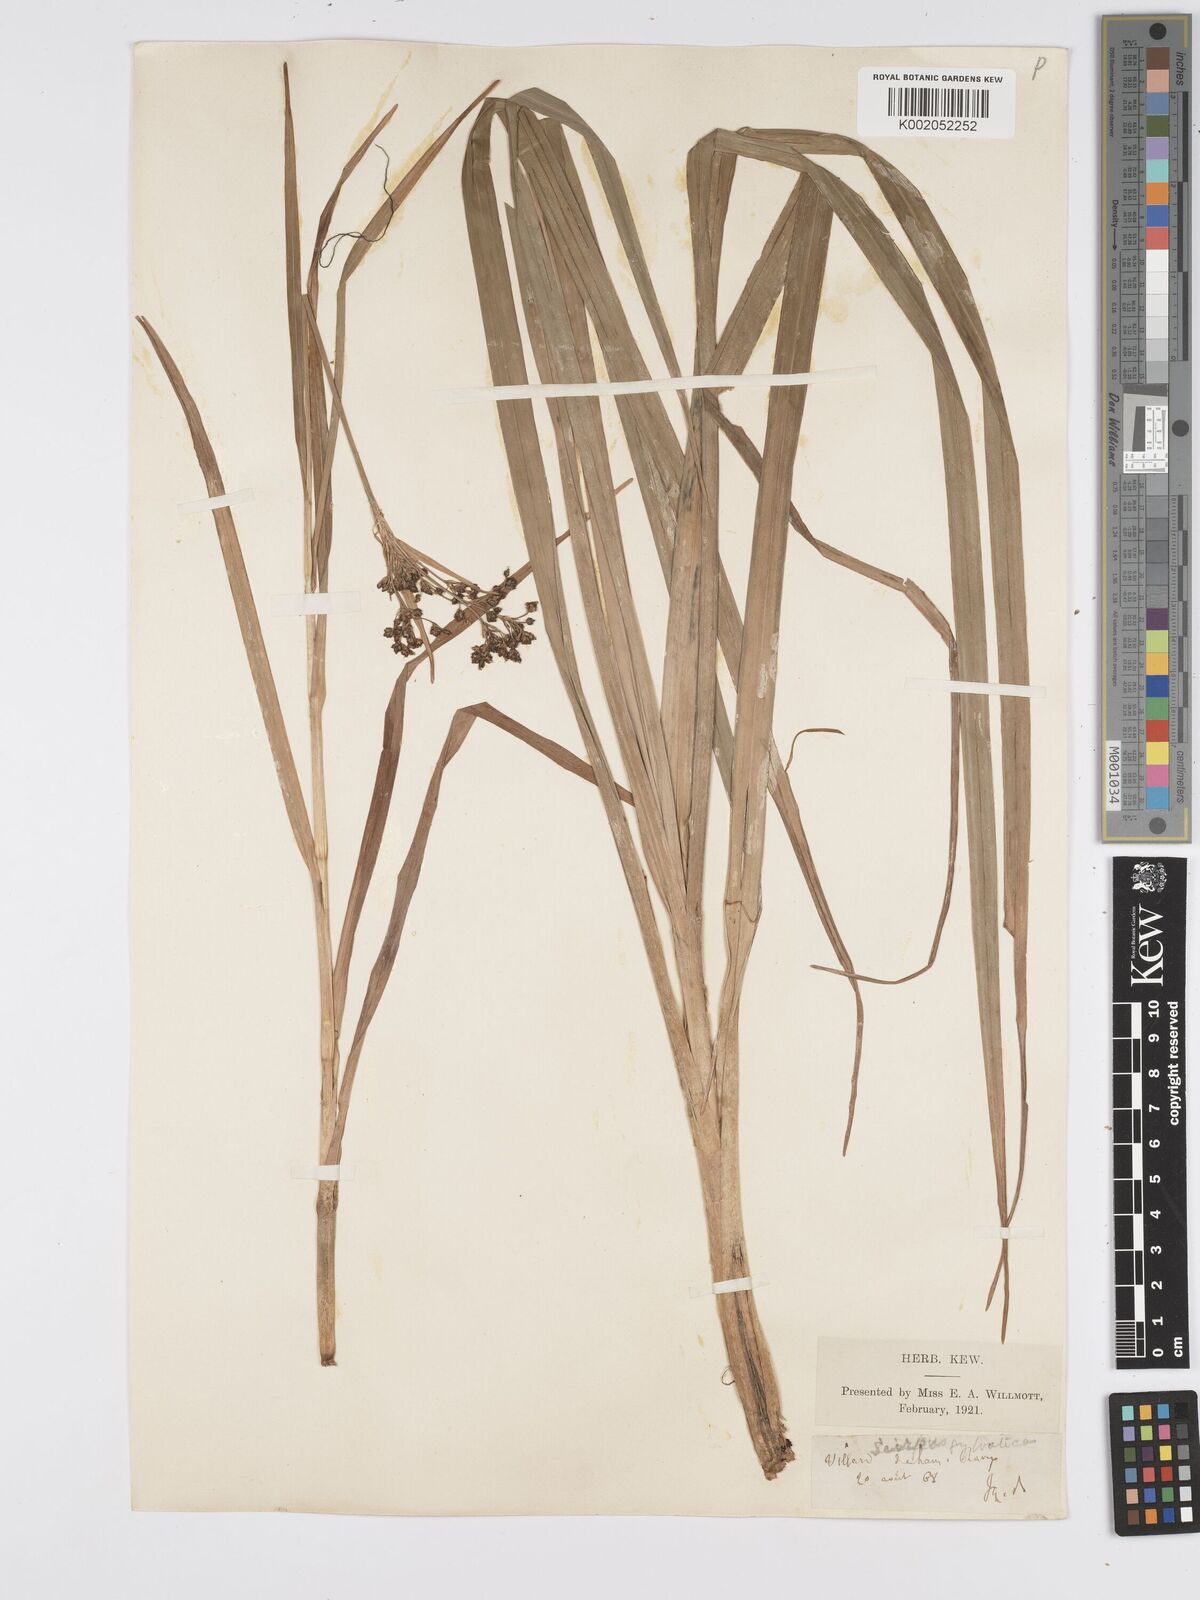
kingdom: Plantae
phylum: Tracheophyta
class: Liliopsida
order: Poales
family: Cyperaceae
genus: Scirpus
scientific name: Scirpus sylvaticus
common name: Wood club-rush
